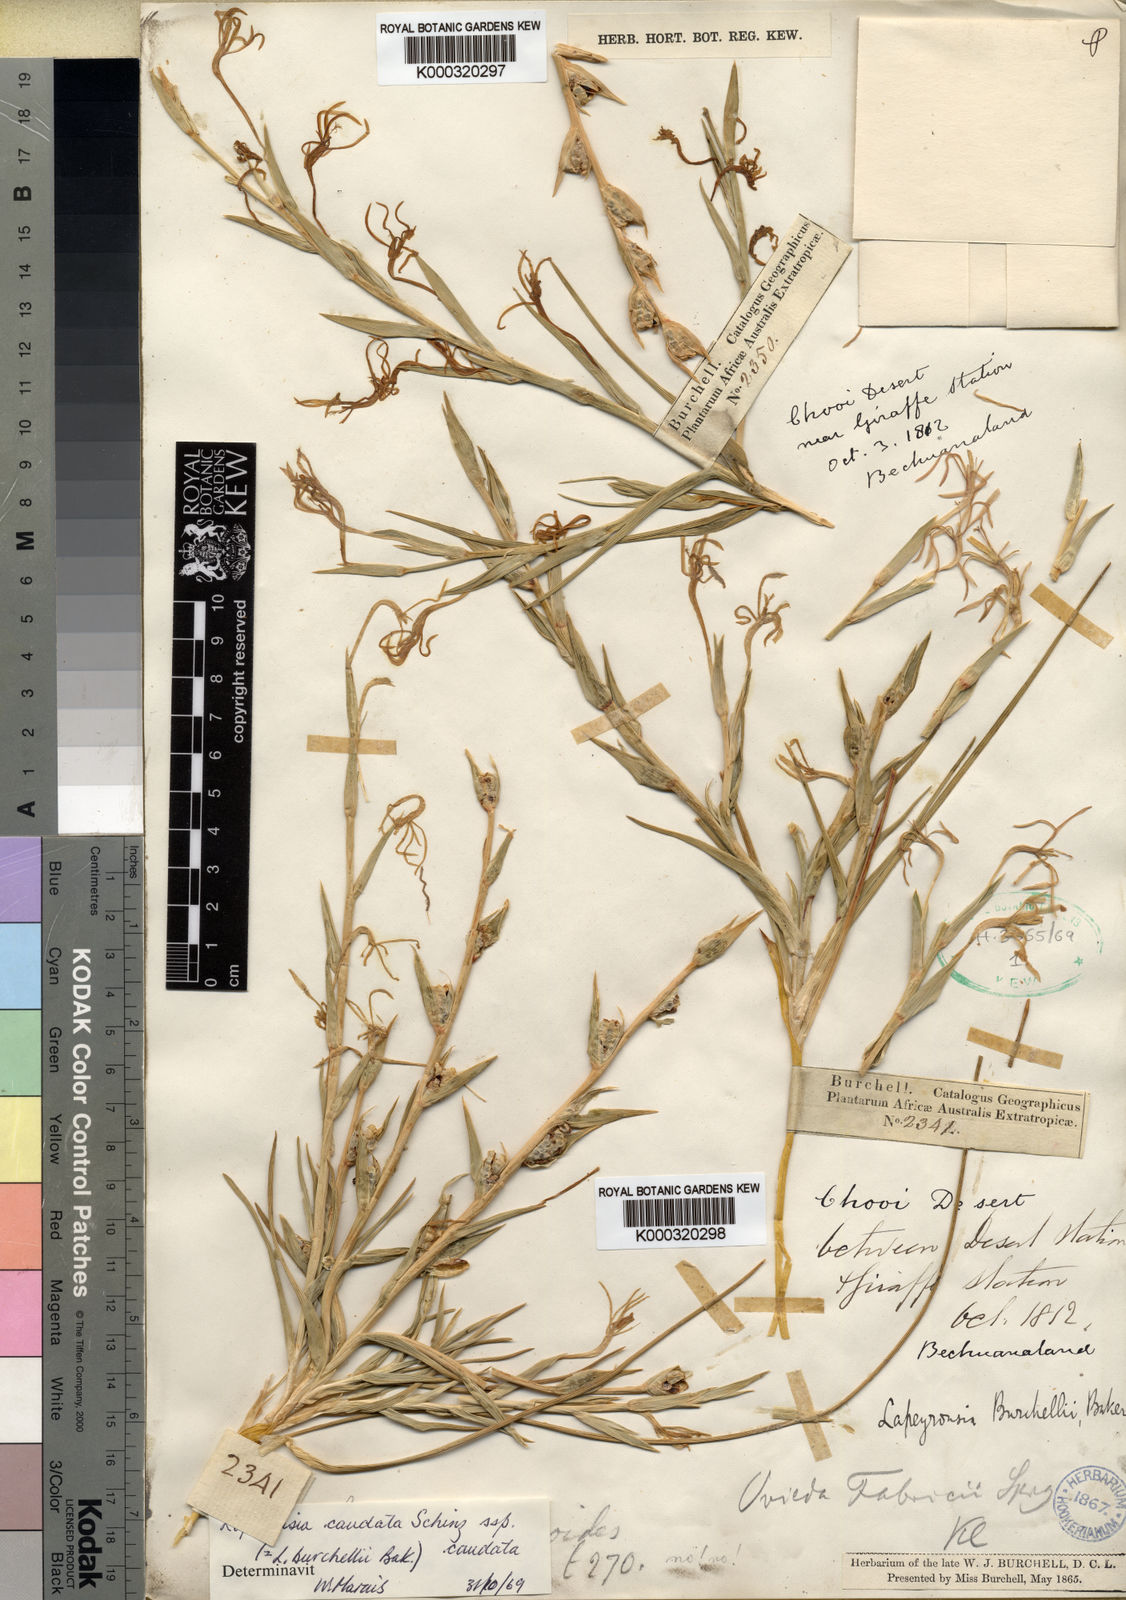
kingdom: Plantae
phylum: Tracheophyta
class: Liliopsida
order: Asparagales
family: Iridaceae
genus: Lapeirousia
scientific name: Lapeirousia littoralis
